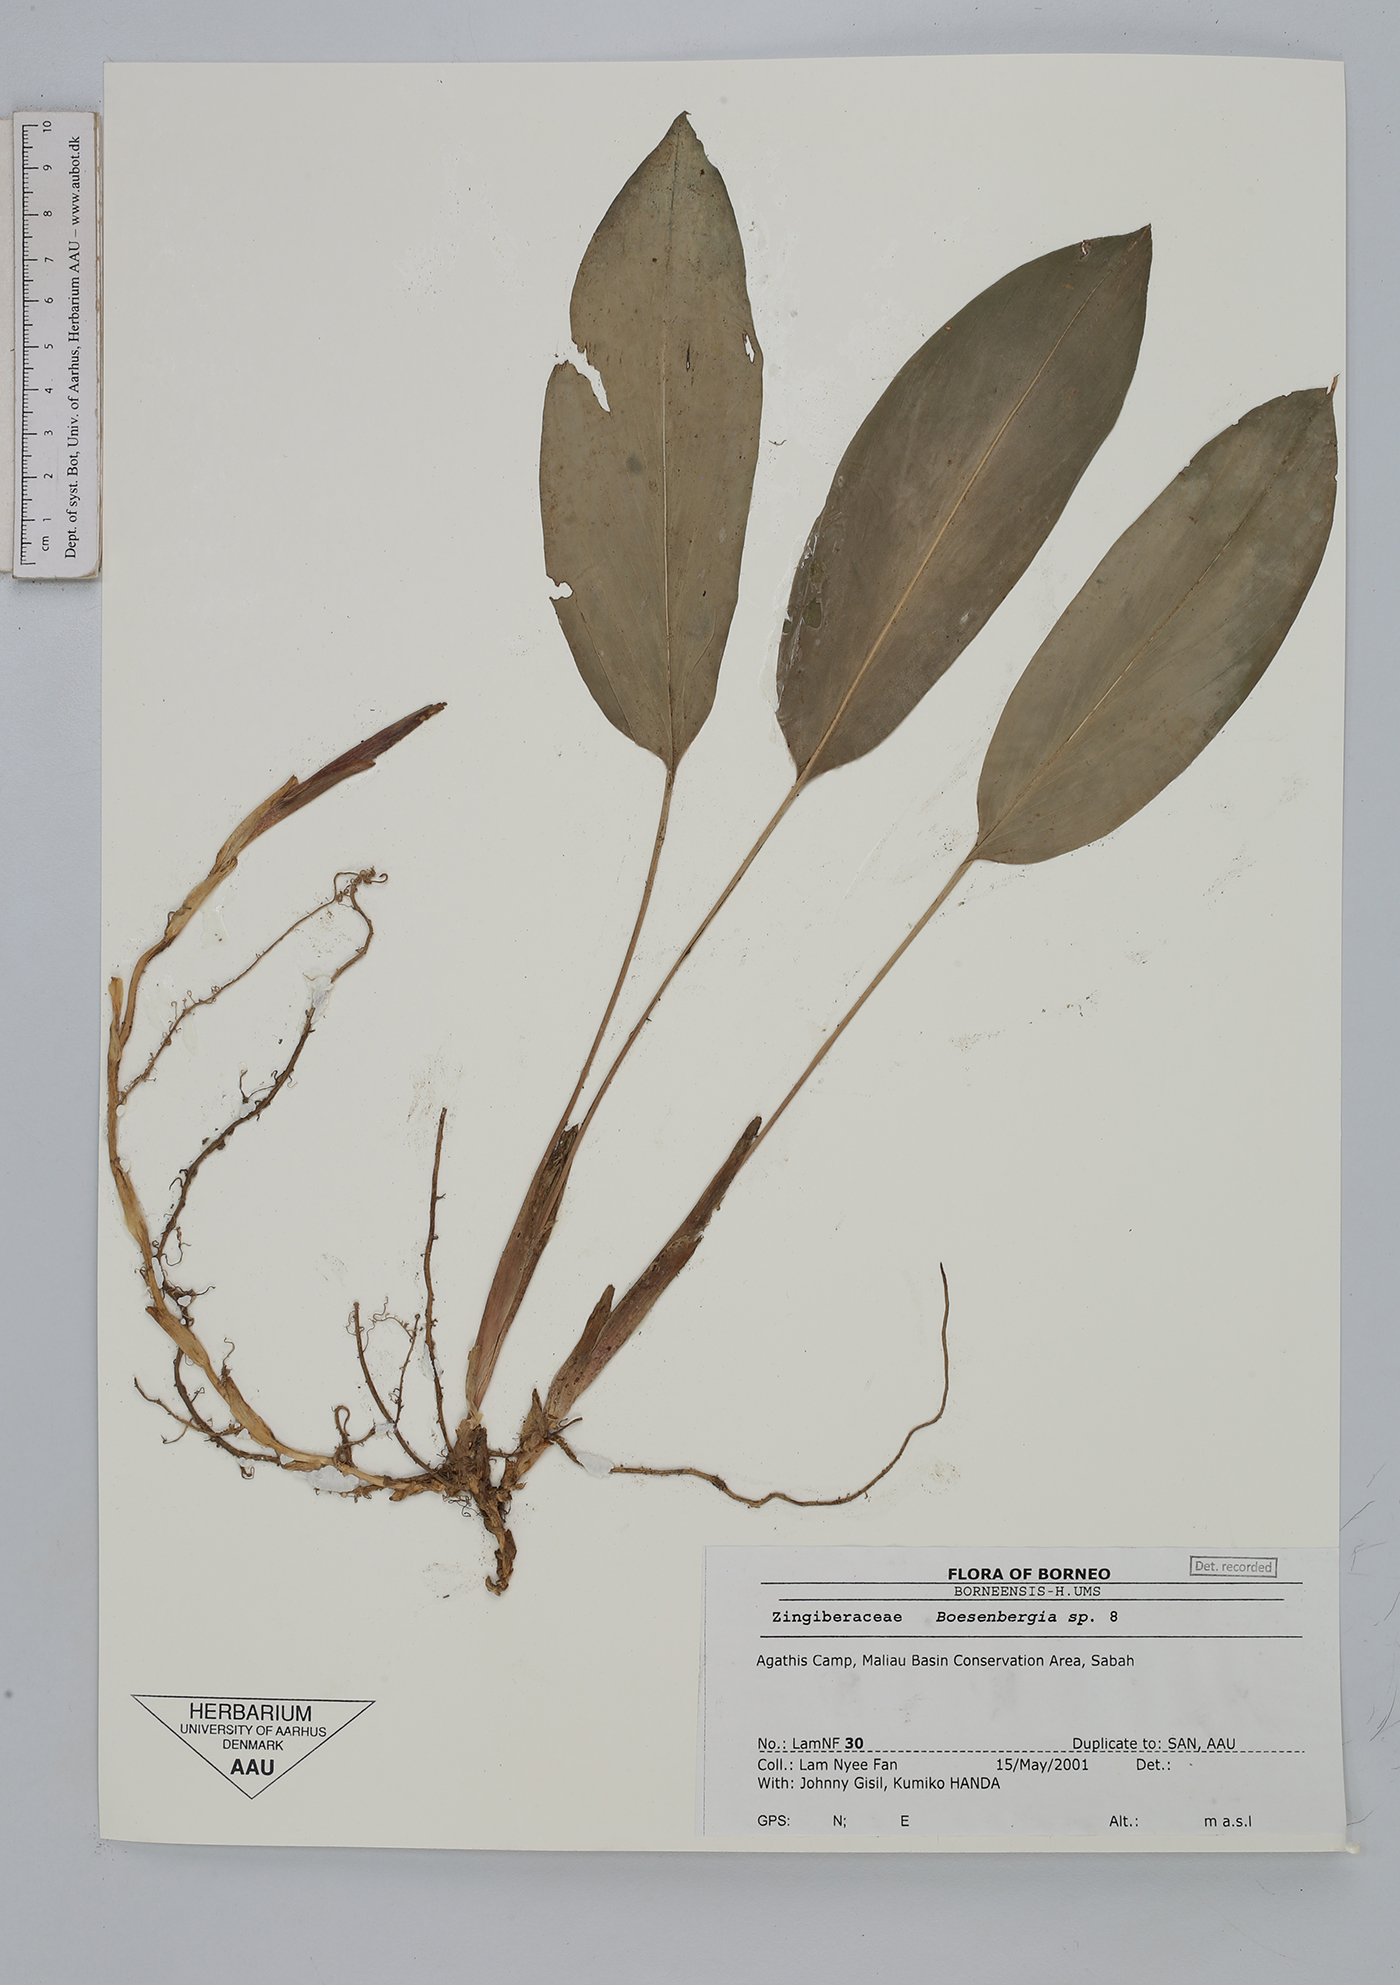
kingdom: Plantae
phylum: Tracheophyta
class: Liliopsida
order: Zingiberales
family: Zingiberaceae
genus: Boesenbergia
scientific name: Boesenbergia
